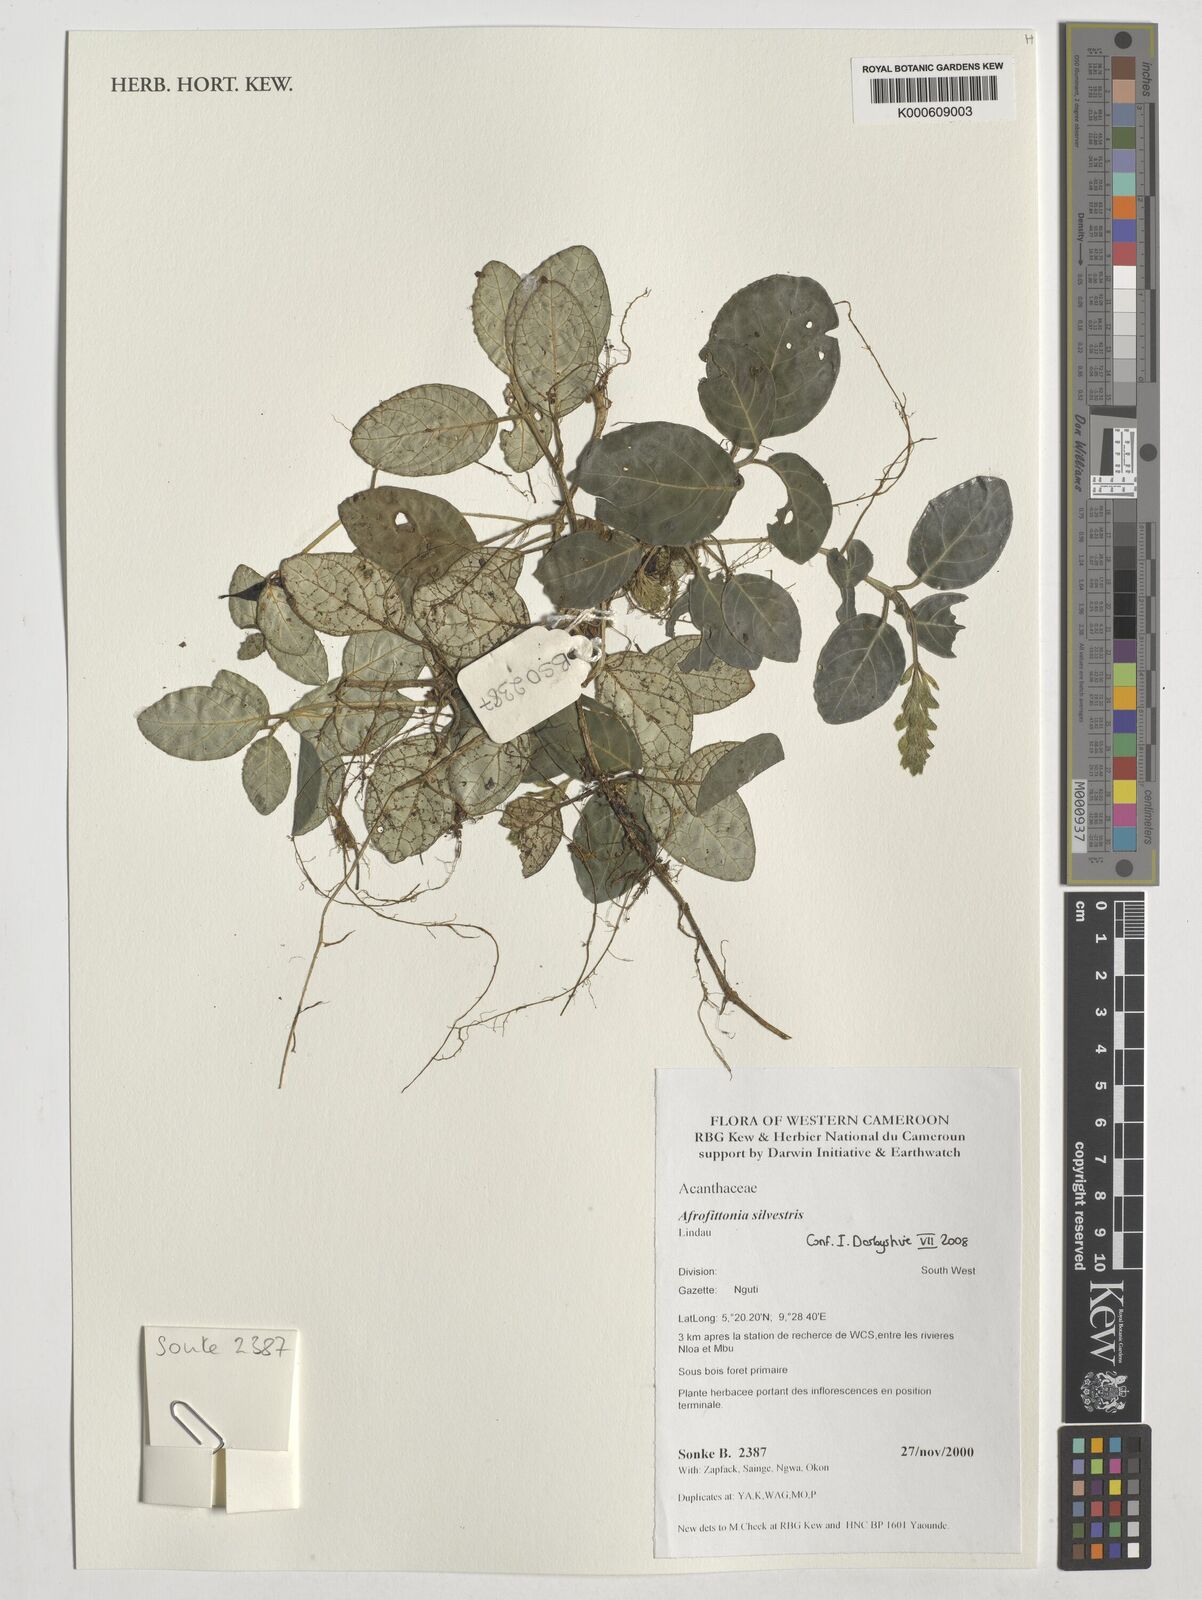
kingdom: Plantae
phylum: Tracheophyta
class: Magnoliopsida
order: Lamiales
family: Acanthaceae
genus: Afrofittonia
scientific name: Afrofittonia silvestris
